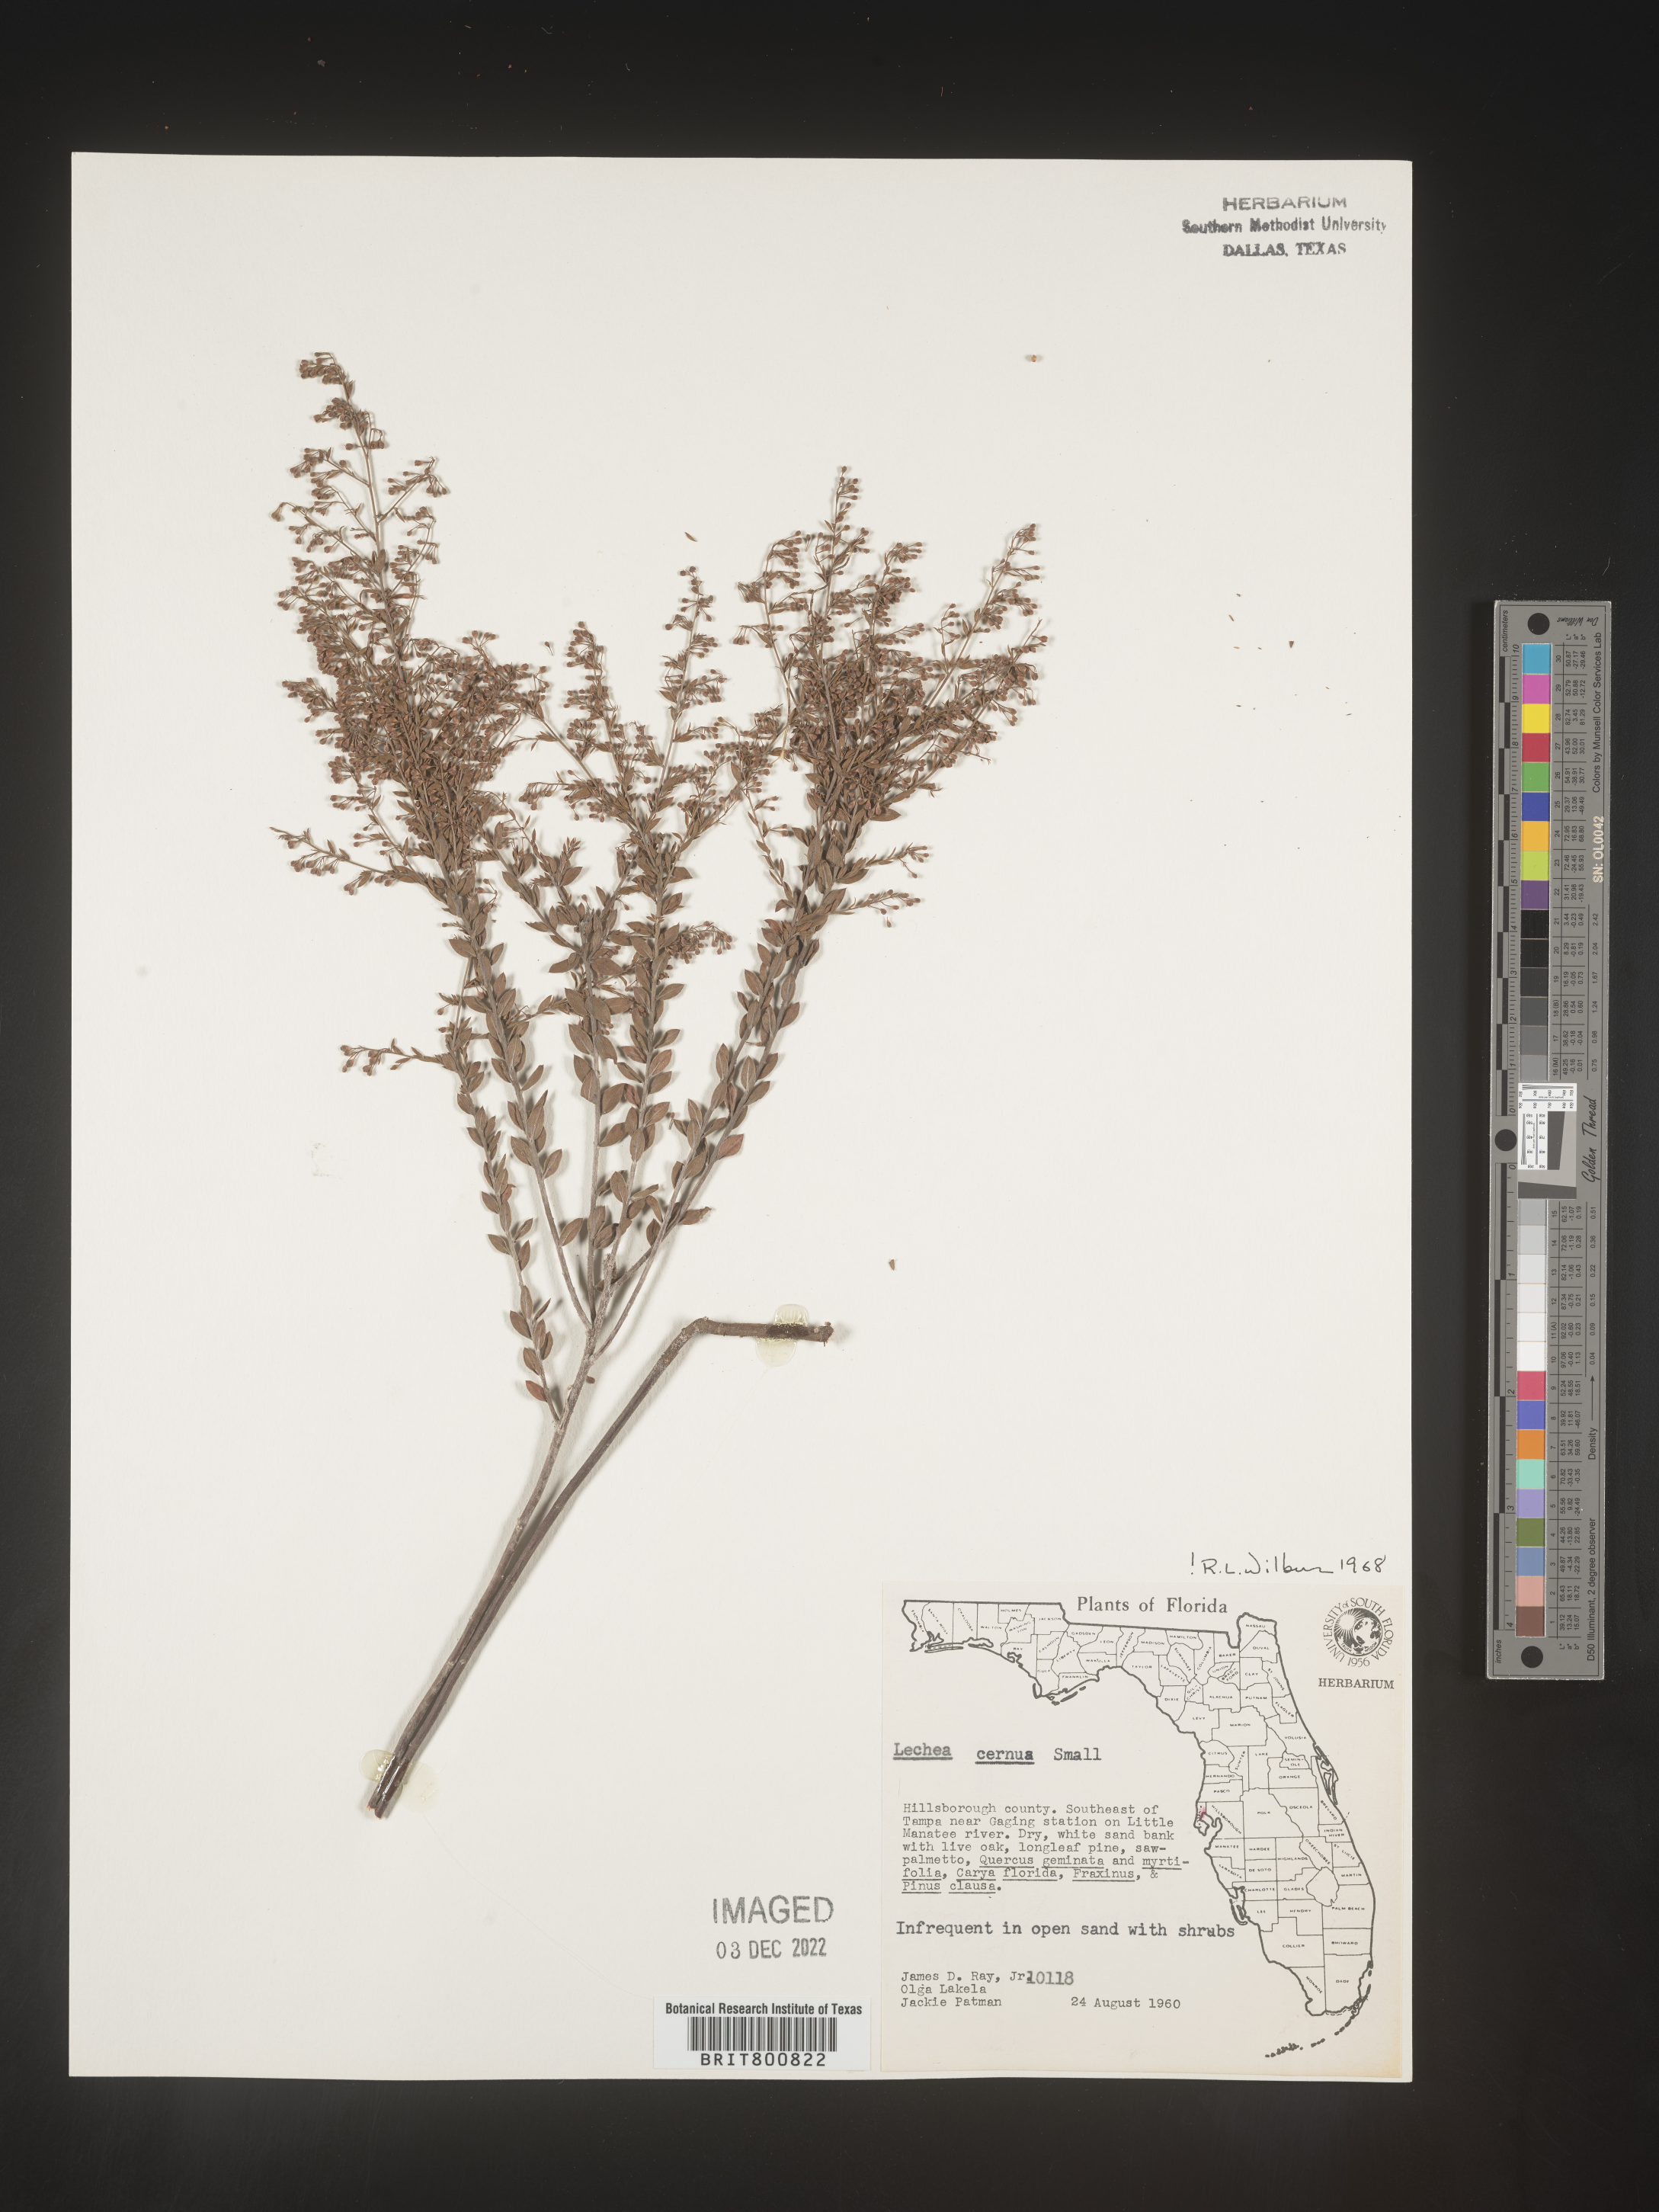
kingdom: Plantae
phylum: Tracheophyta
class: Magnoliopsida
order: Malvales
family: Cistaceae
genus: Lechea
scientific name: Lechea
